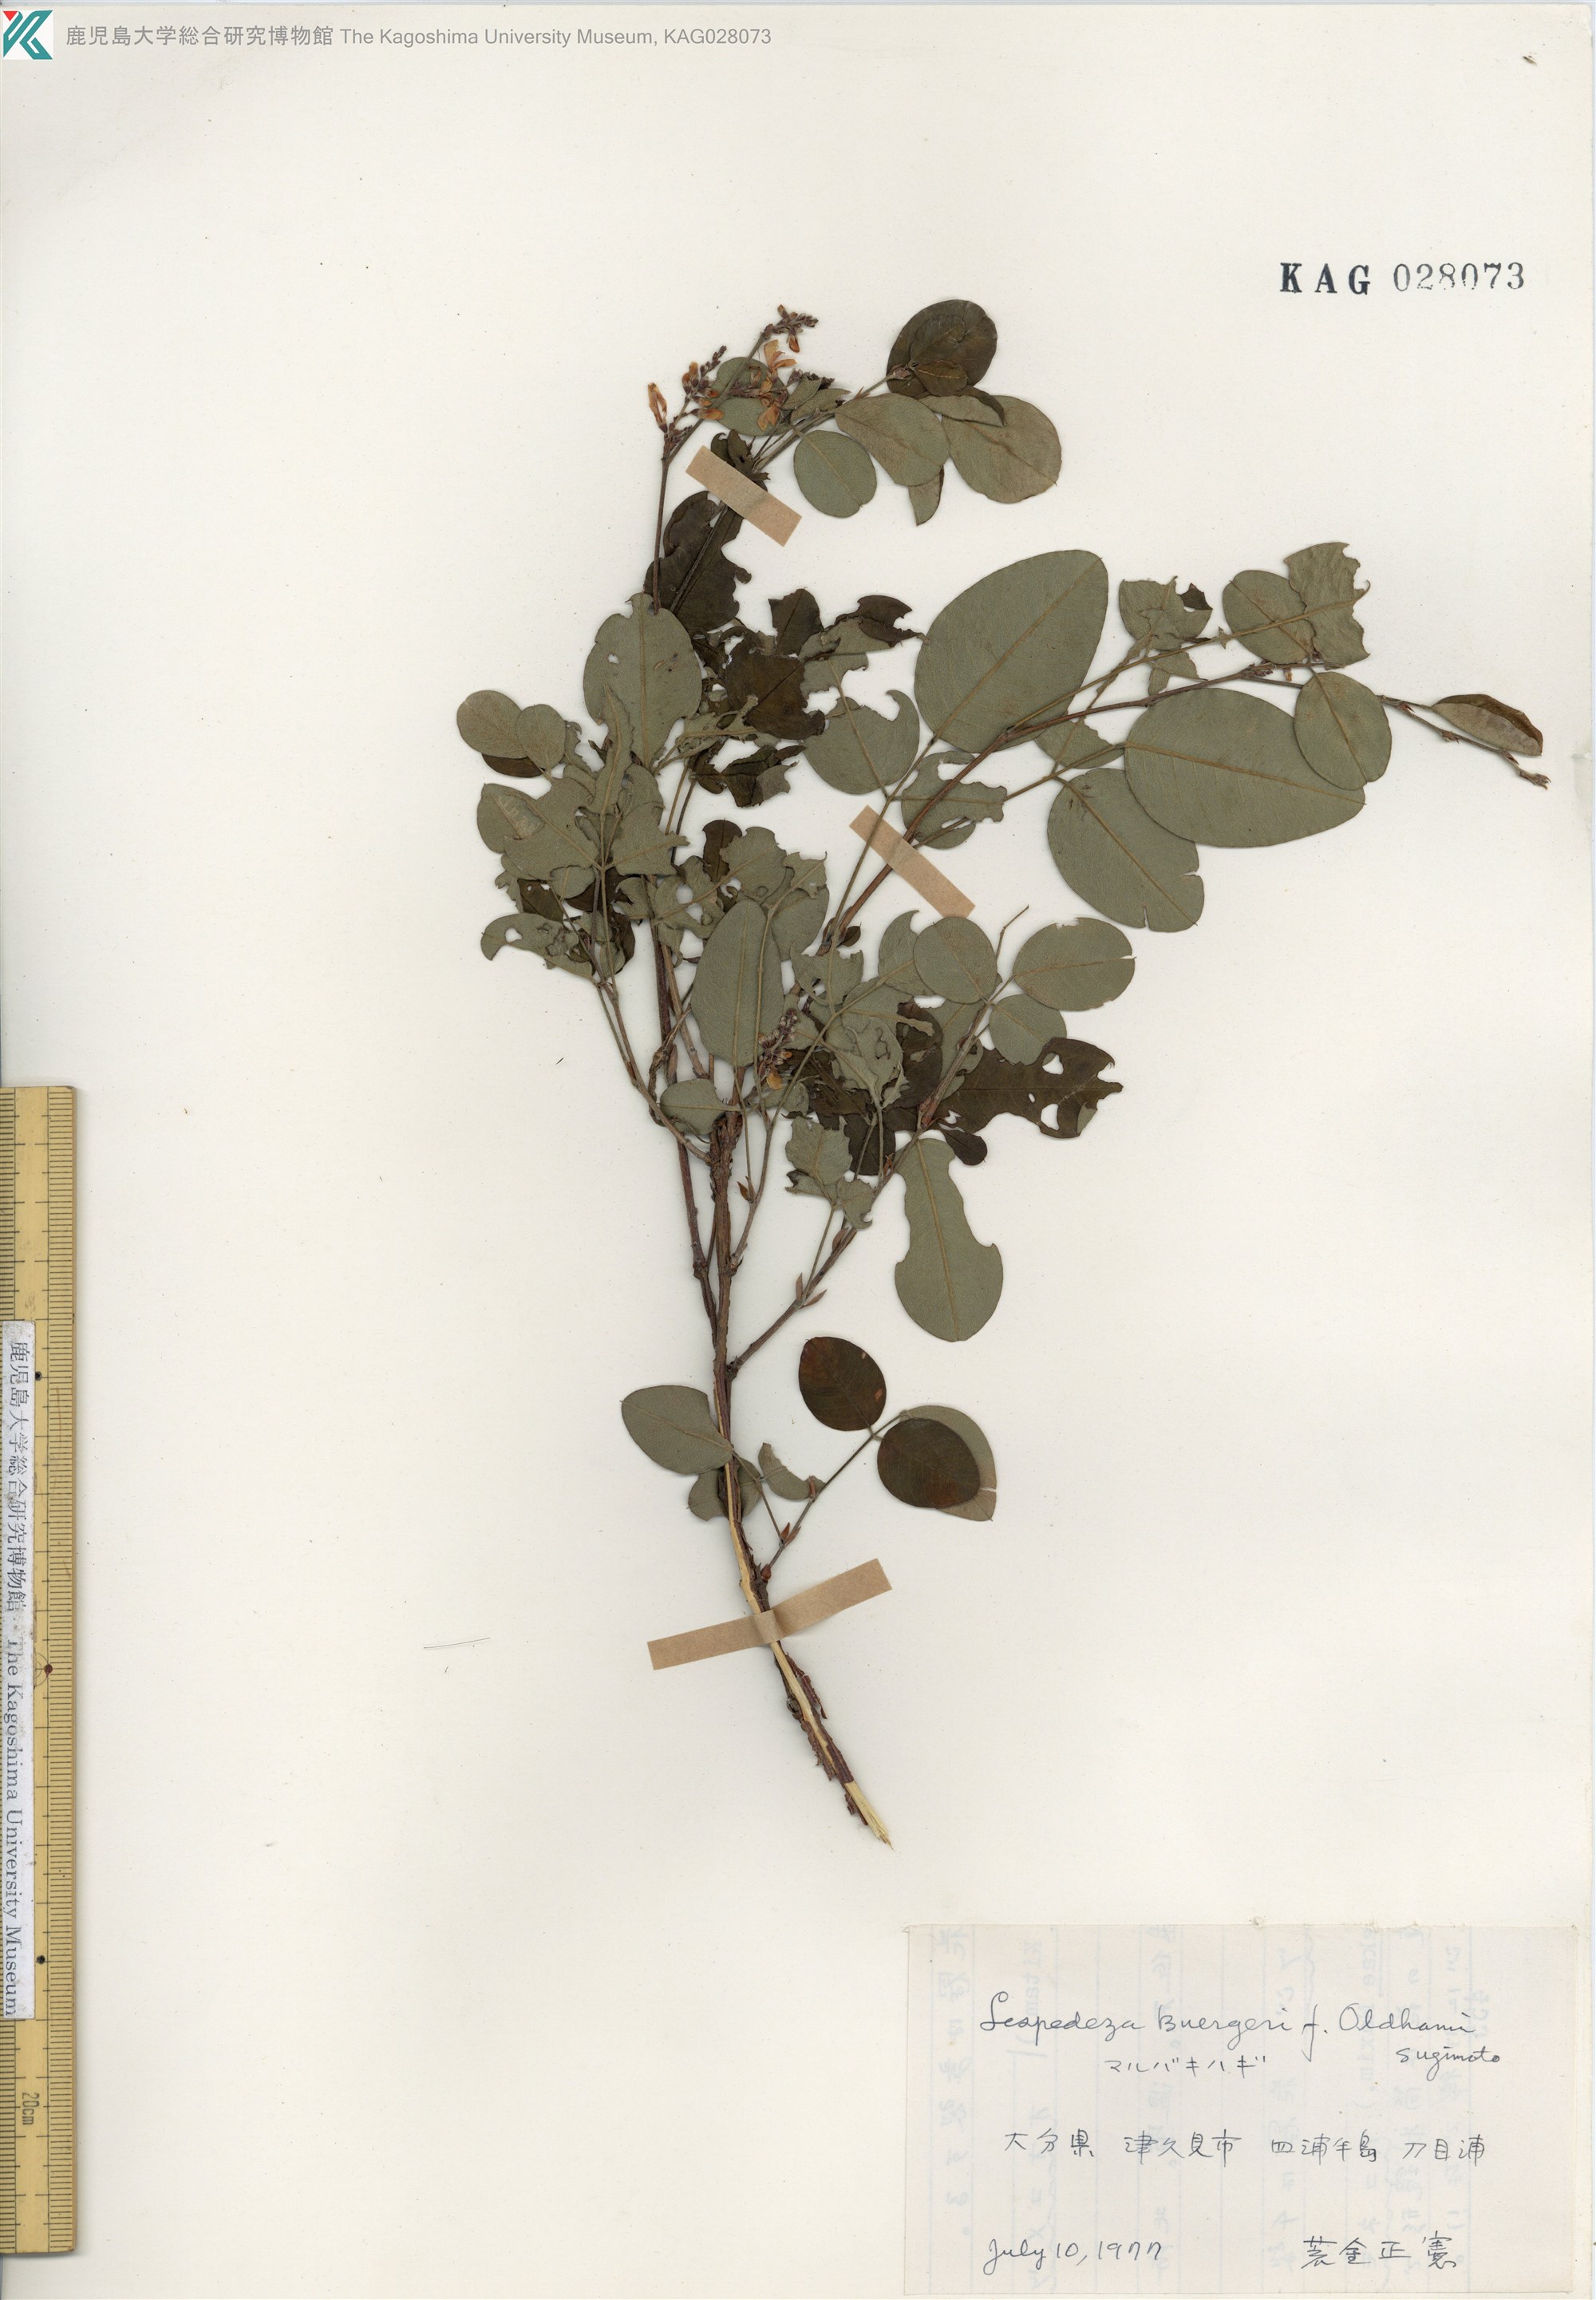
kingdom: Plantae
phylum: Tracheophyta
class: Magnoliopsida
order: Fabales
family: Fabaceae
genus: Lespedeza
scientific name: Lespedeza buergeri
